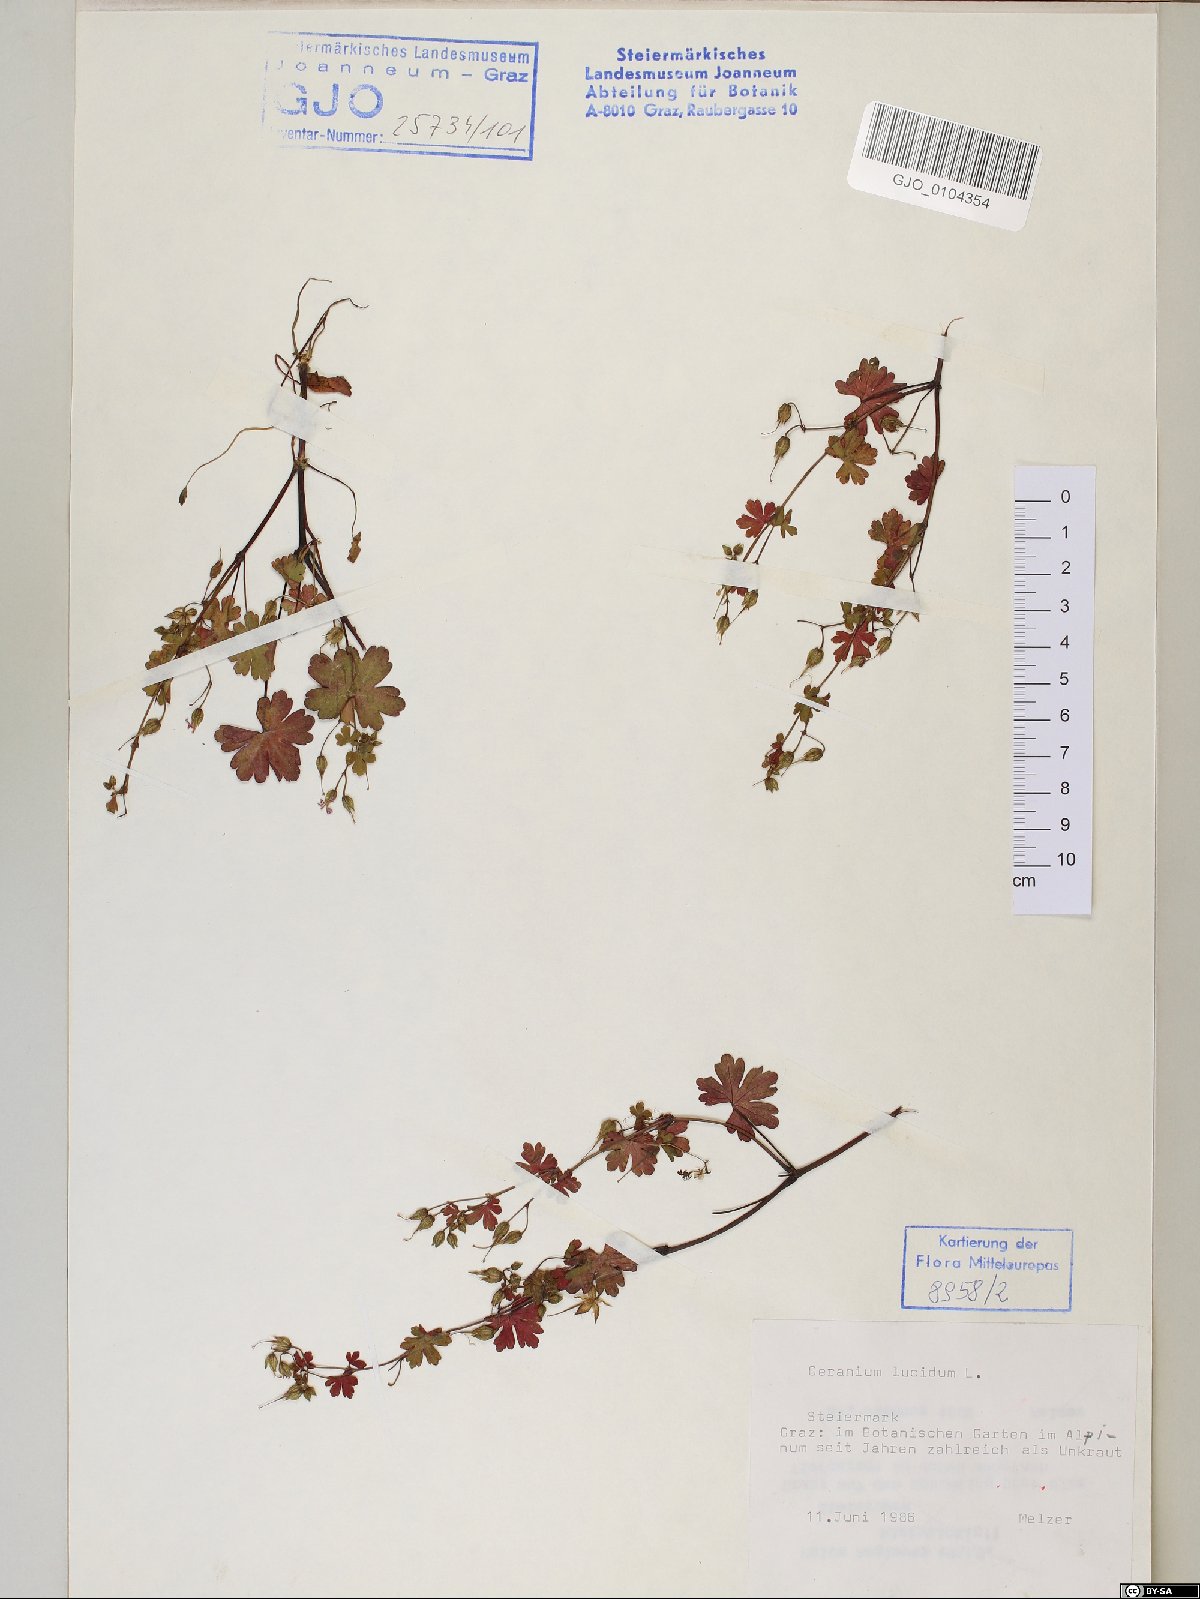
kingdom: Plantae
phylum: Tracheophyta
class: Magnoliopsida
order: Geraniales
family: Geraniaceae
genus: Geranium
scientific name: Geranium lucidum
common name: Shining crane's-bill
